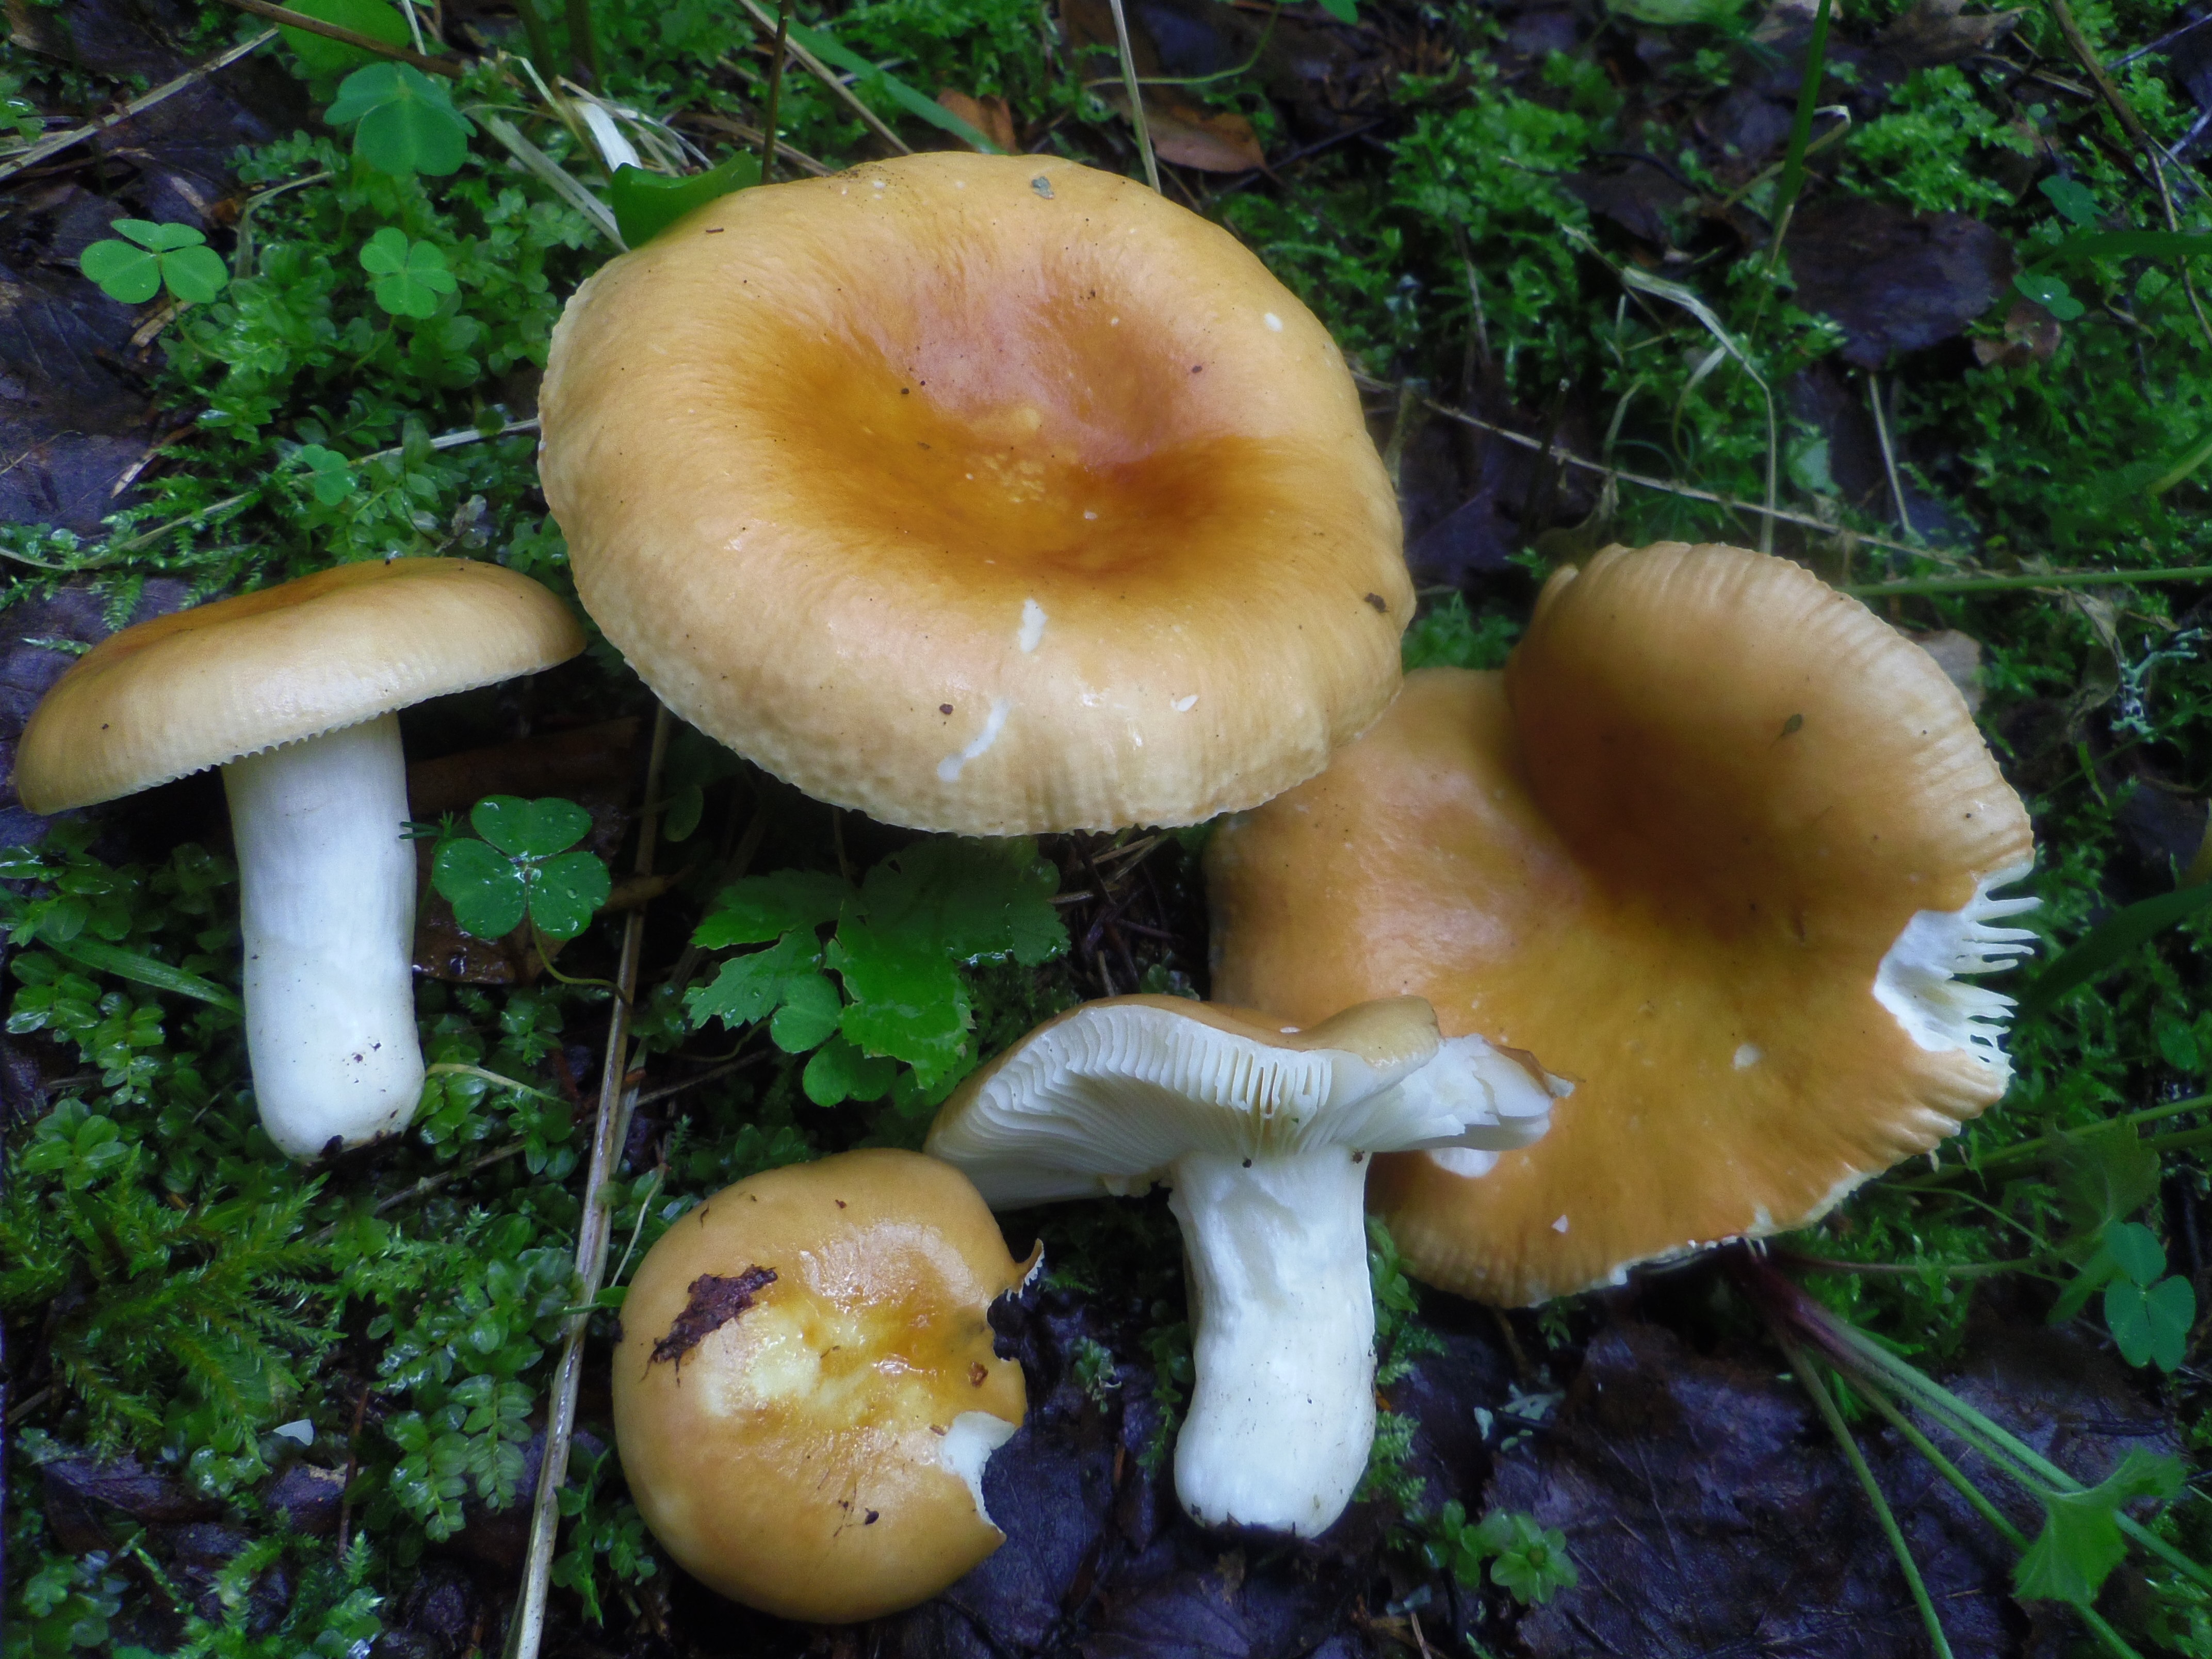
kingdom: Fungi
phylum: Basidiomycota
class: Agaricomycetes
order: Russulales
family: Russulaceae
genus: Russula
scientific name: Russula
